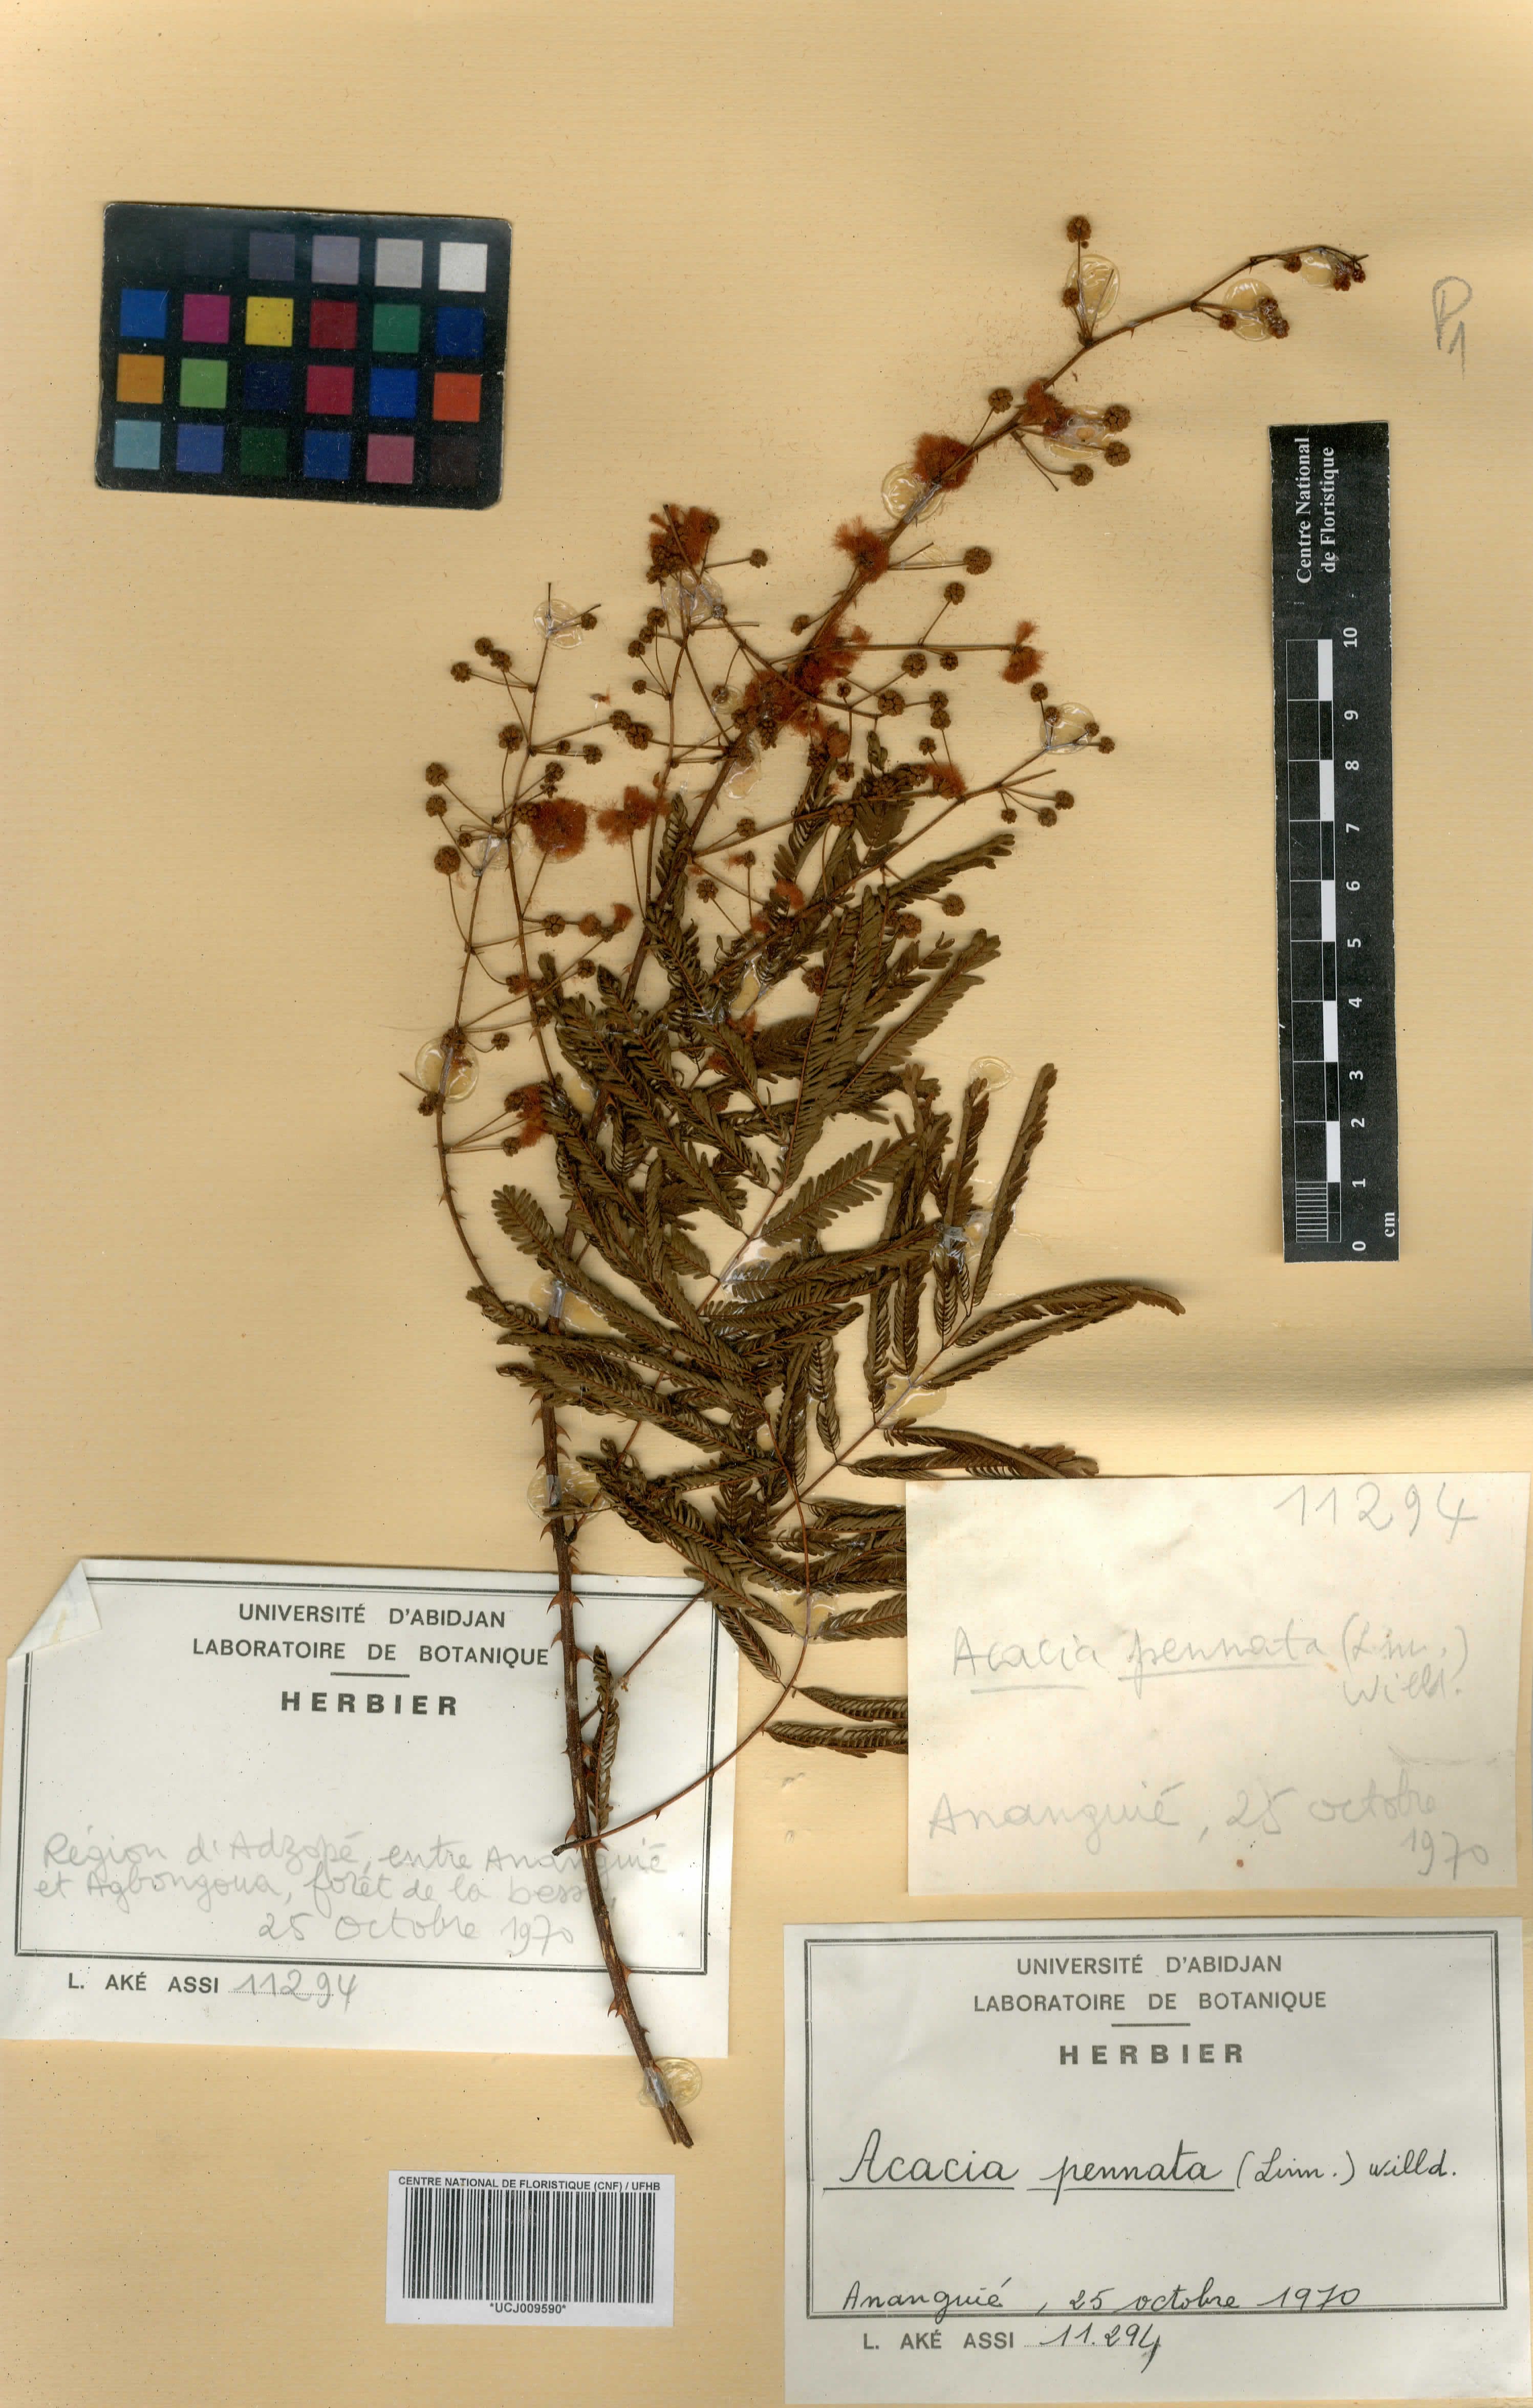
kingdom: Plantae
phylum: Tracheophyta
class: Magnoliopsida
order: Fabales
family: Fabaceae
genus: Senegalia
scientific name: Senegalia pennata
